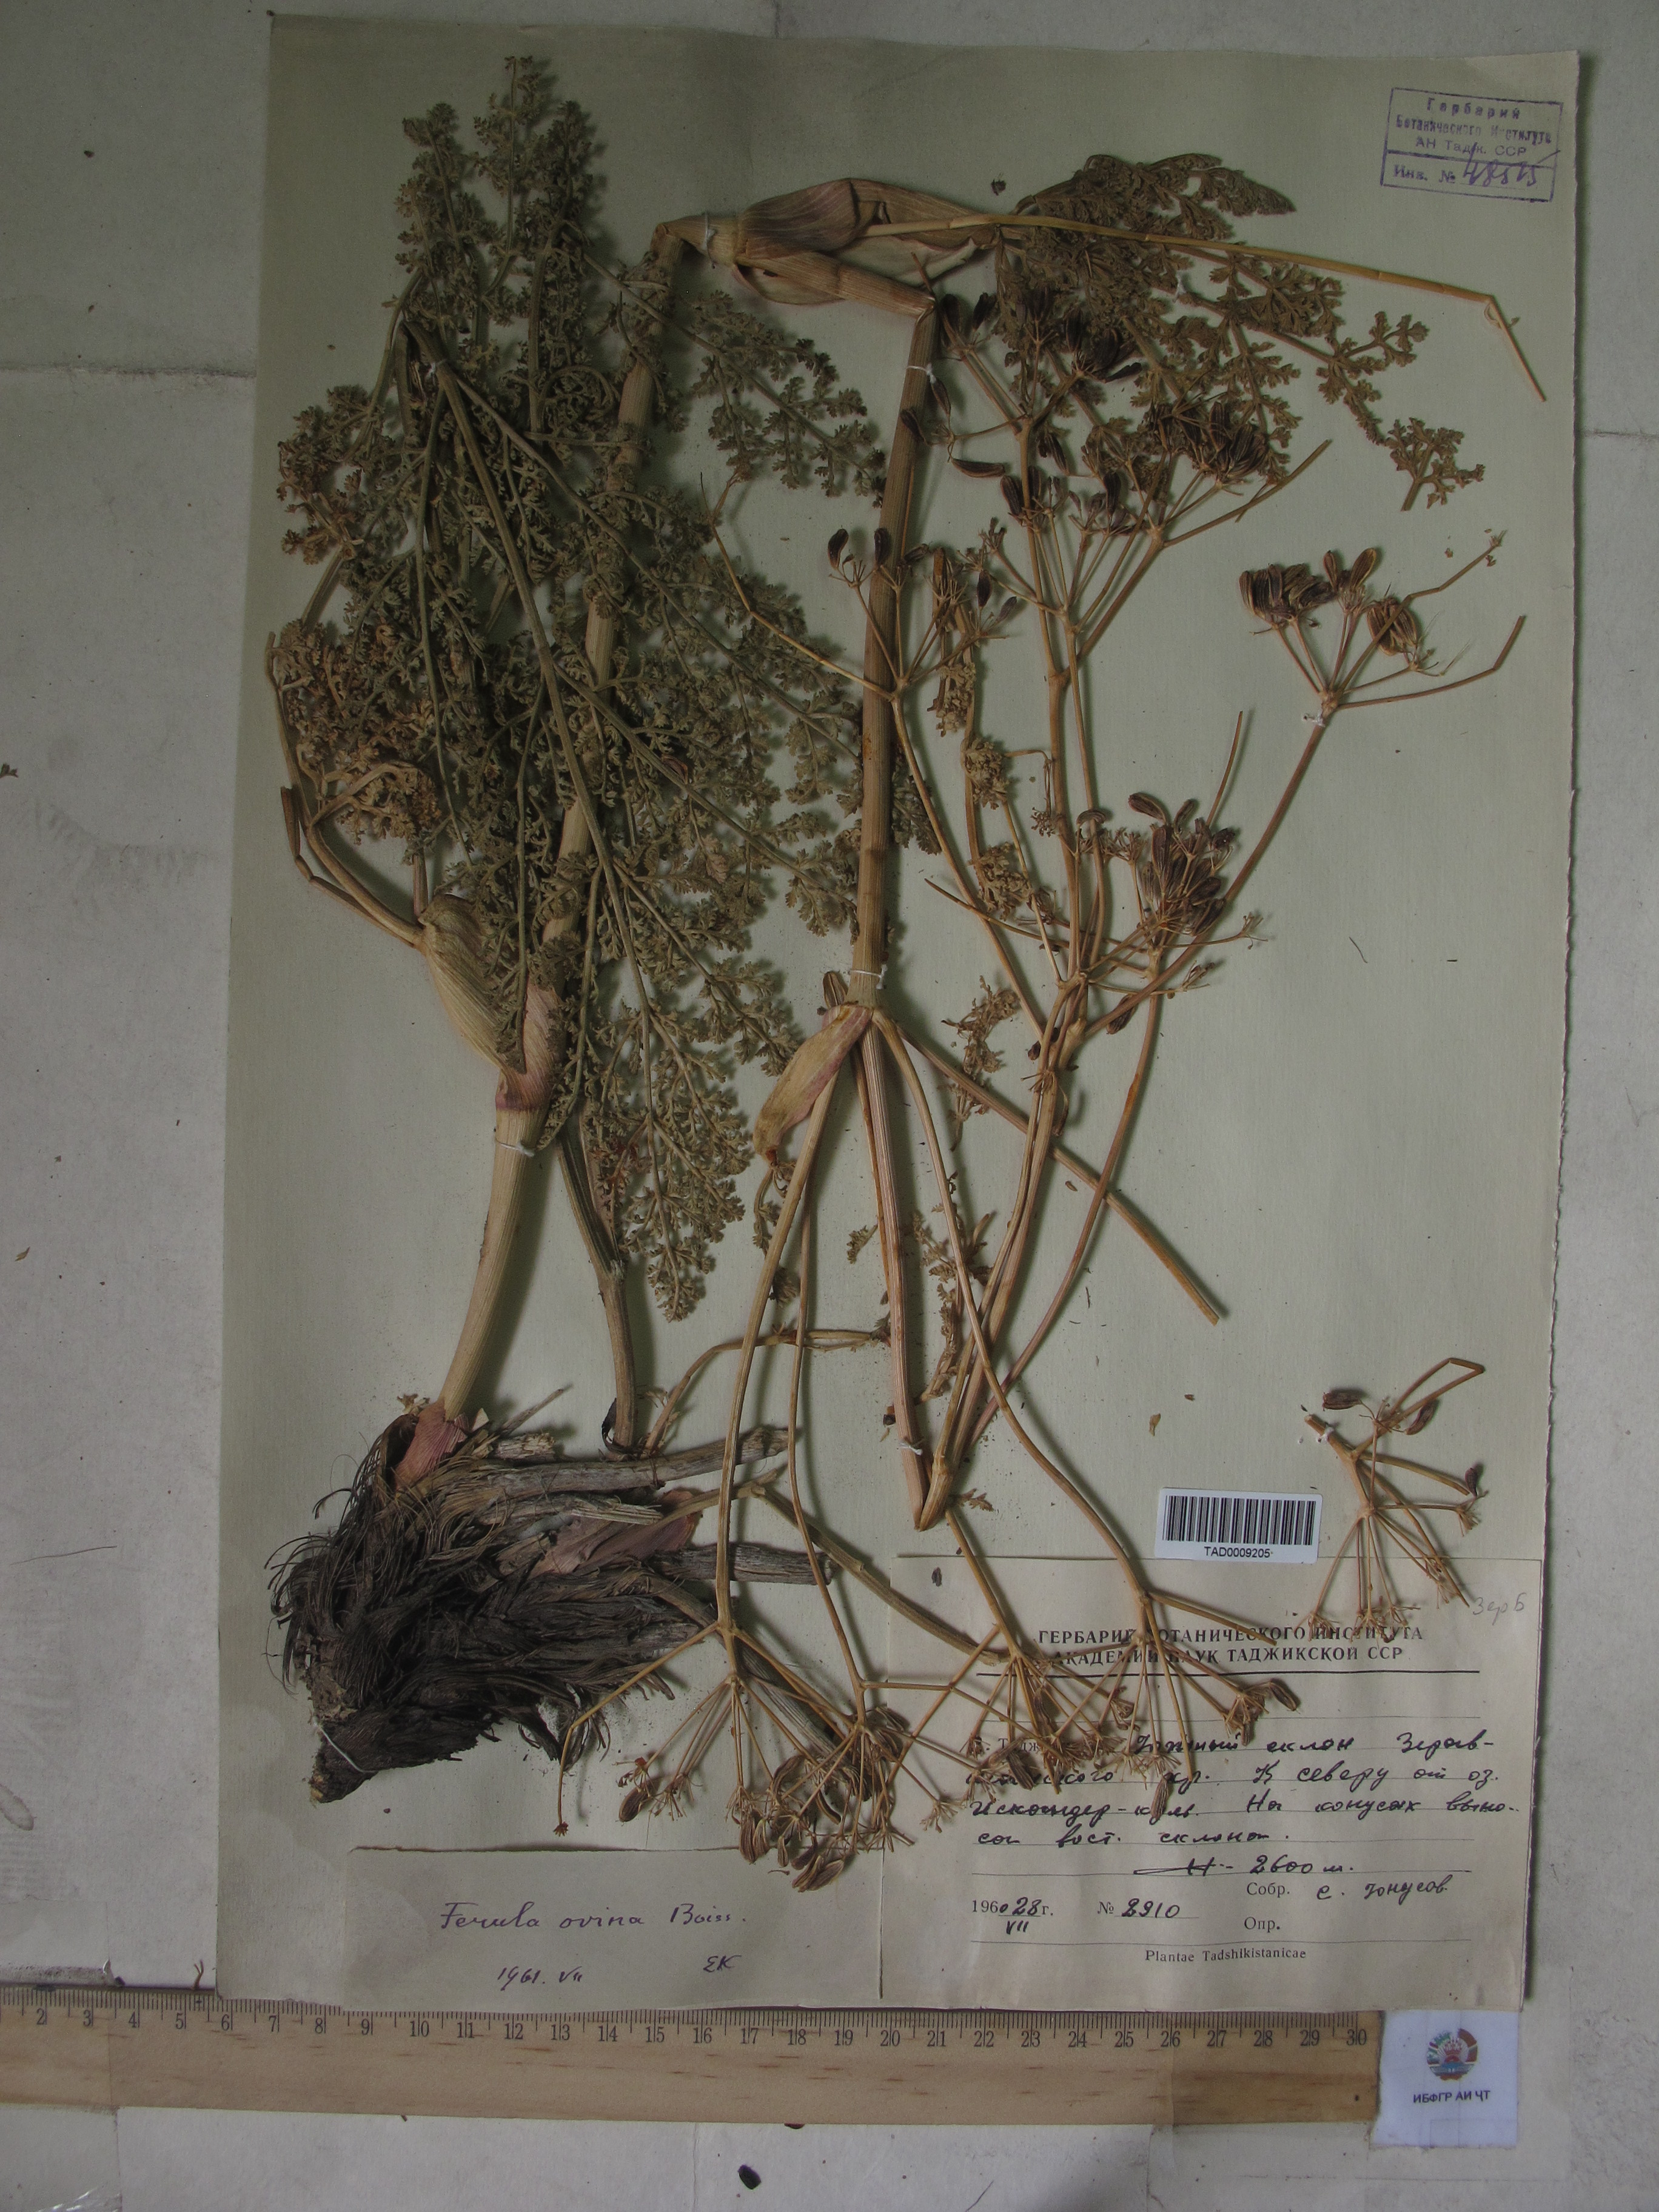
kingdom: Plantae
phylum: Tracheophyta
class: Magnoliopsida
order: Apiales
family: Apiaceae
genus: Ferula
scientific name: Ferula ovina
